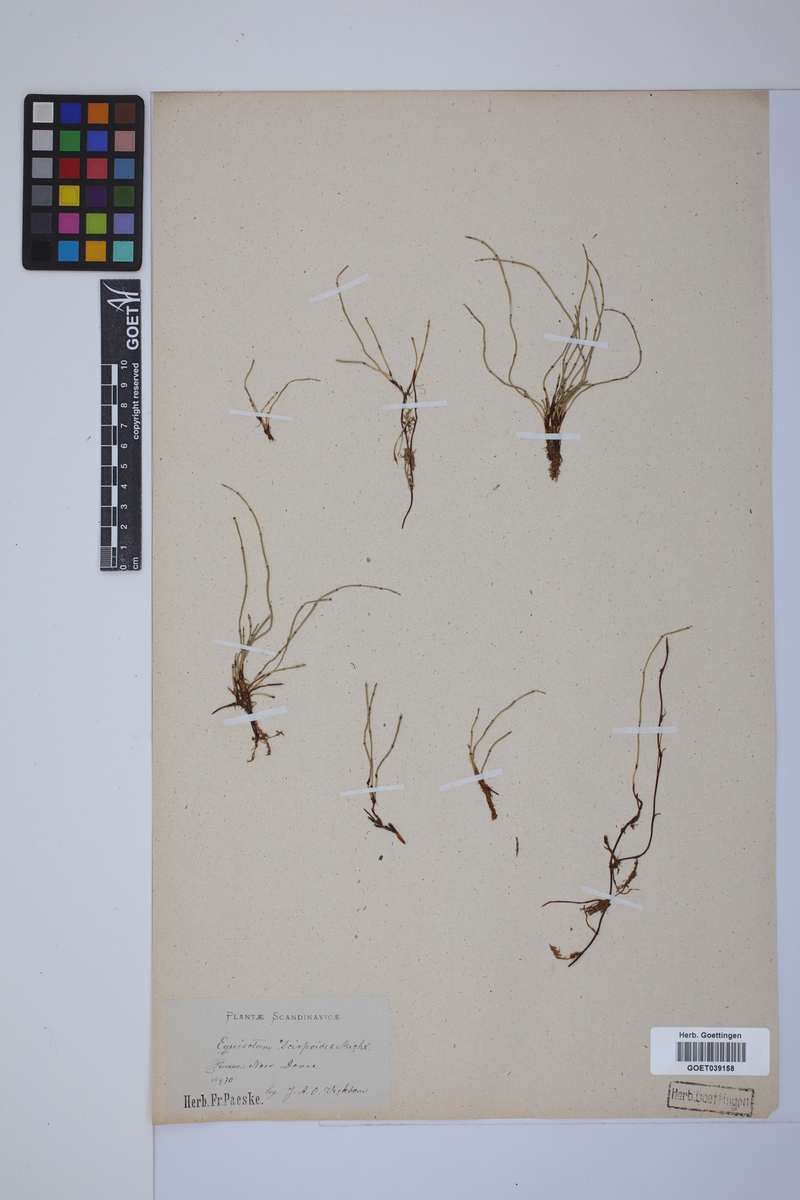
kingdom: Plantae
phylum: Tracheophyta
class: Polypodiopsida
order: Equisetales
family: Equisetaceae
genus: Equisetum
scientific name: Equisetum scirpoides
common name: Delicate horsetail
